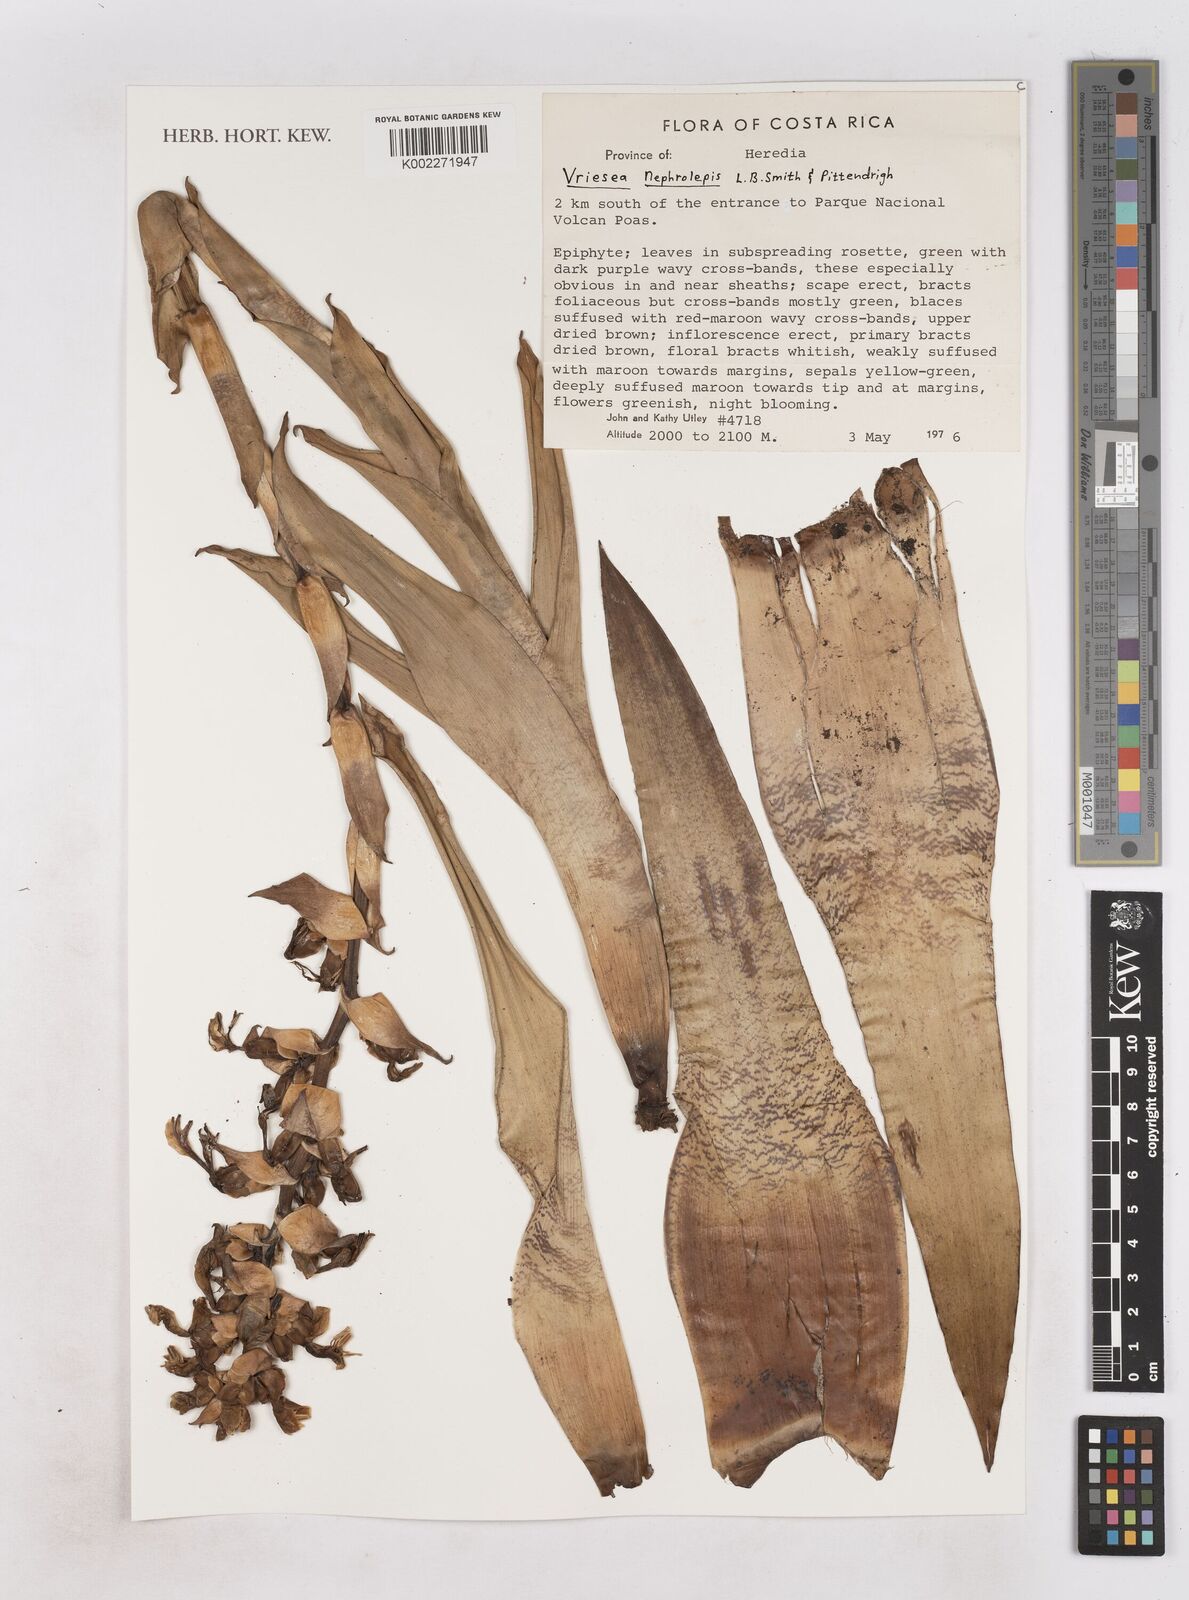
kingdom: Plantae
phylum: Tracheophyta
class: Liliopsida
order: Poales
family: Bromeliaceae
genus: Werauhia
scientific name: Werauhia montana
